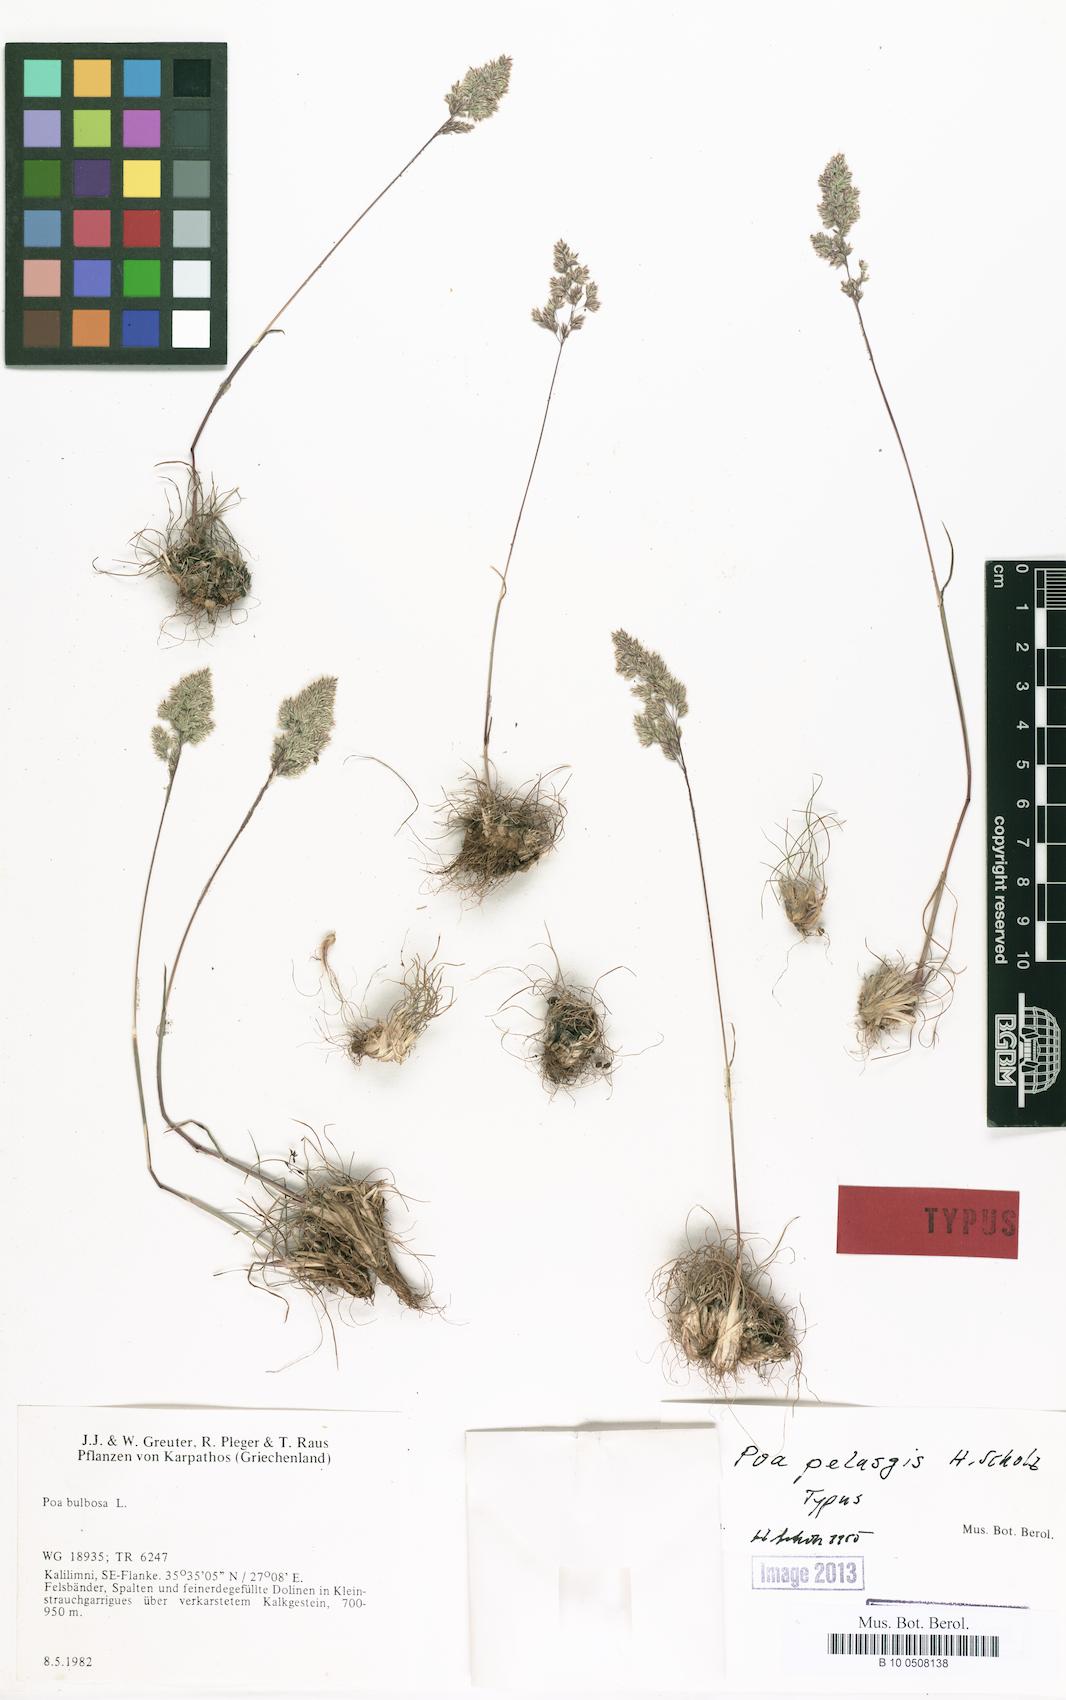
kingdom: Plantae
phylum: Tracheophyta
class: Liliopsida
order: Poales
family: Poaceae
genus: Poa
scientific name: Poa iconia
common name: Konya bluegrass
